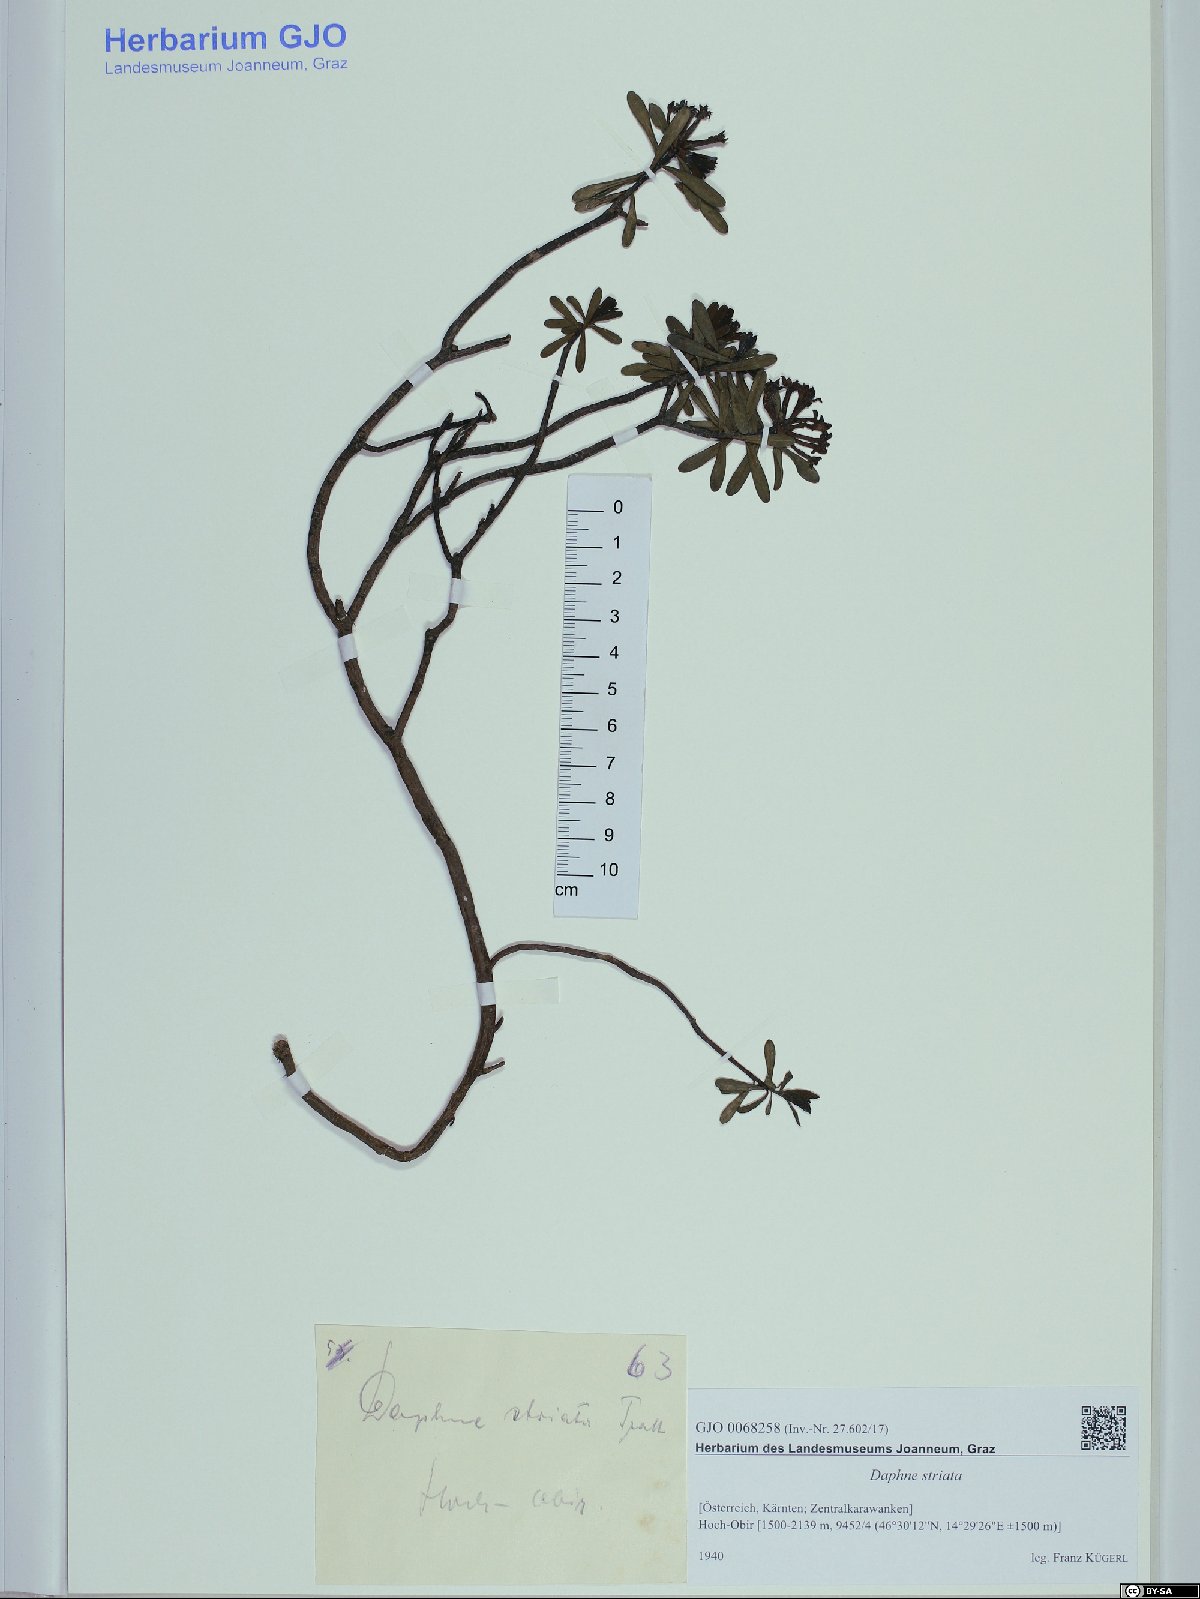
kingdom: Plantae
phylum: Tracheophyta
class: Magnoliopsida
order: Malvales
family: Thymelaeaceae
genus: Daphne
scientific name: Daphne striata
